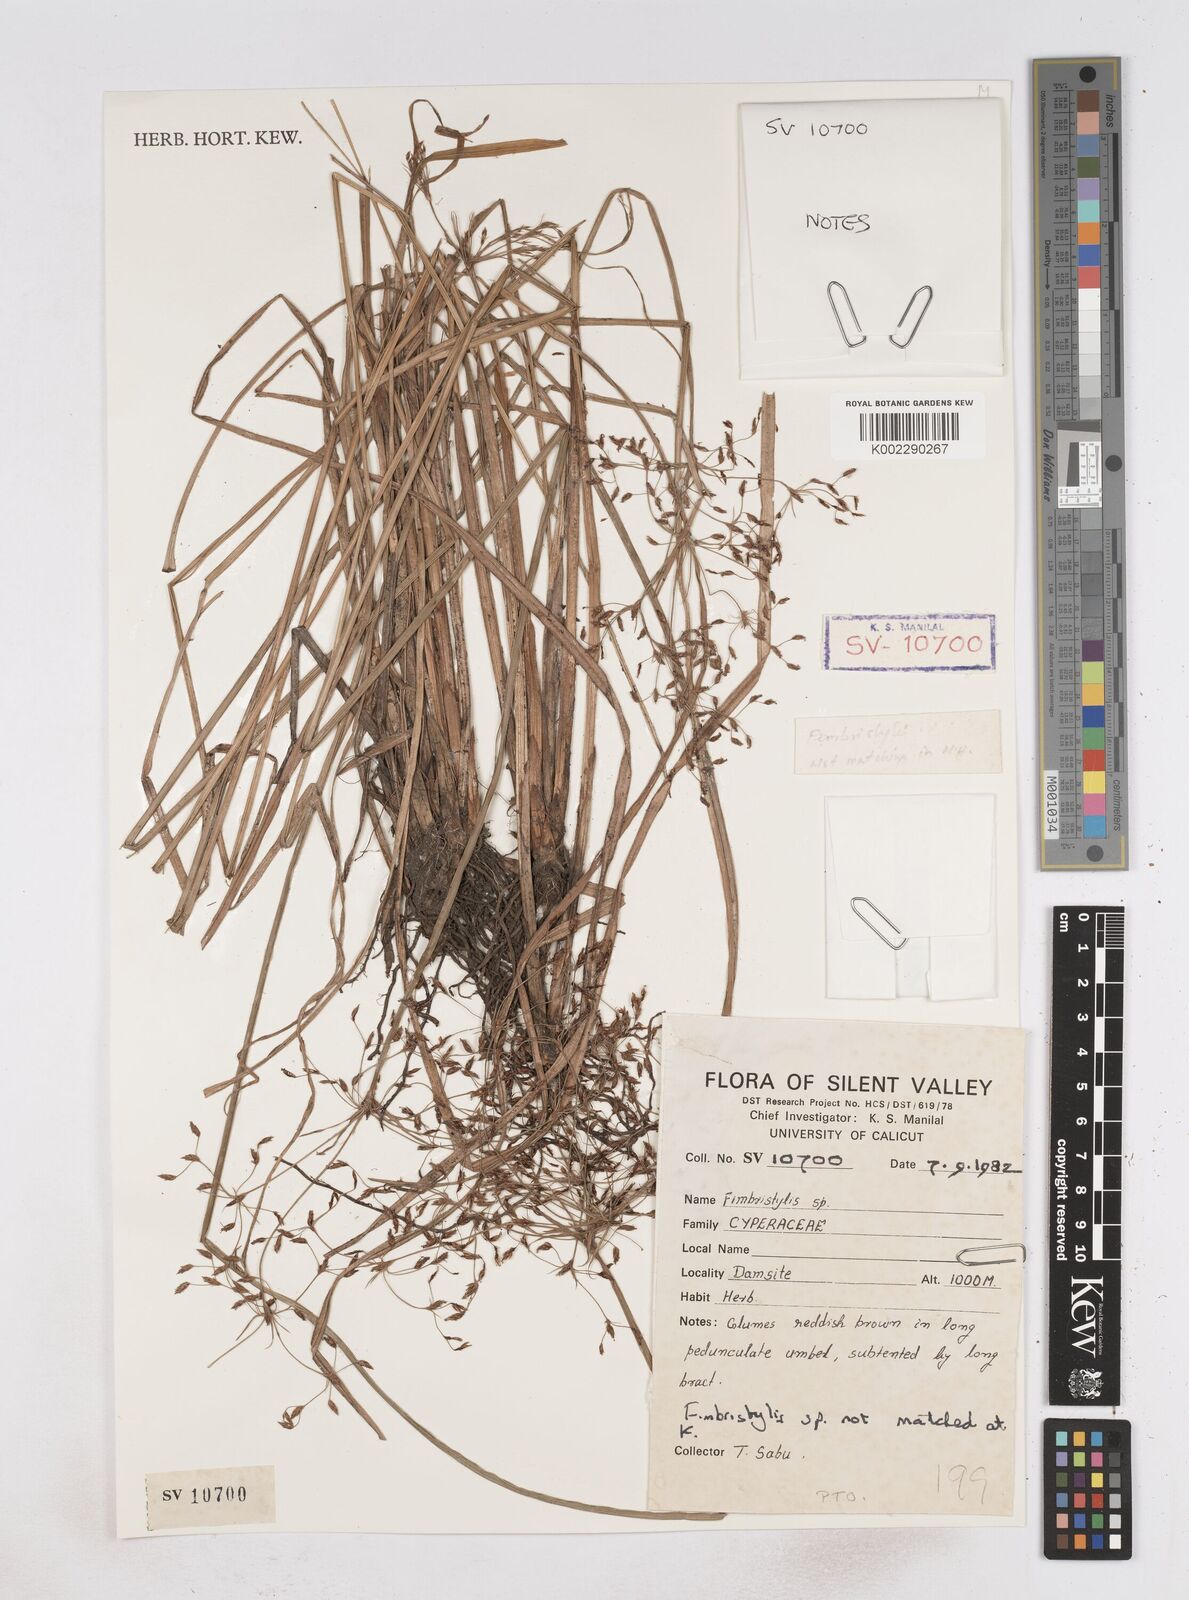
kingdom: Plantae
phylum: Tracheophyta
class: Liliopsida
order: Poales
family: Cyperaceae
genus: Fimbristylis
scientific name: Fimbristylis
